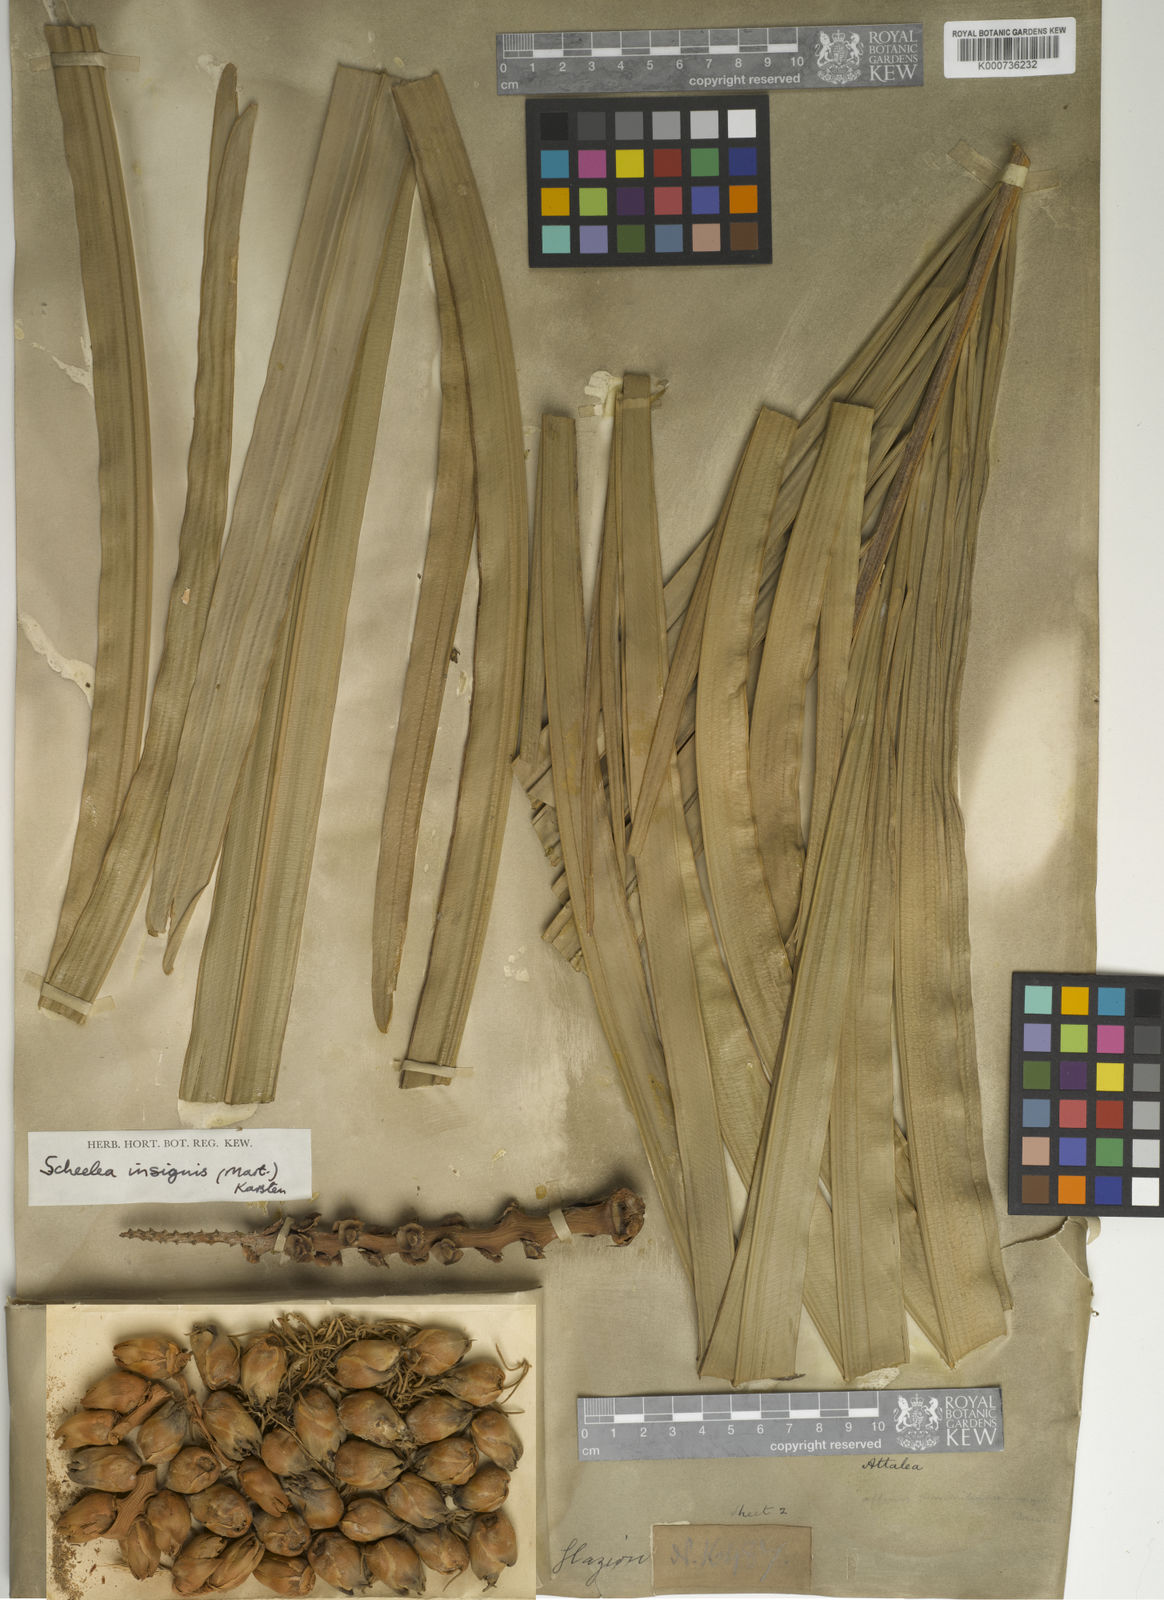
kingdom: Plantae
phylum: Tracheophyta
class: Liliopsida
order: Arecales
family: Arecaceae
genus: Attalea
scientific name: Attalea osmantha
